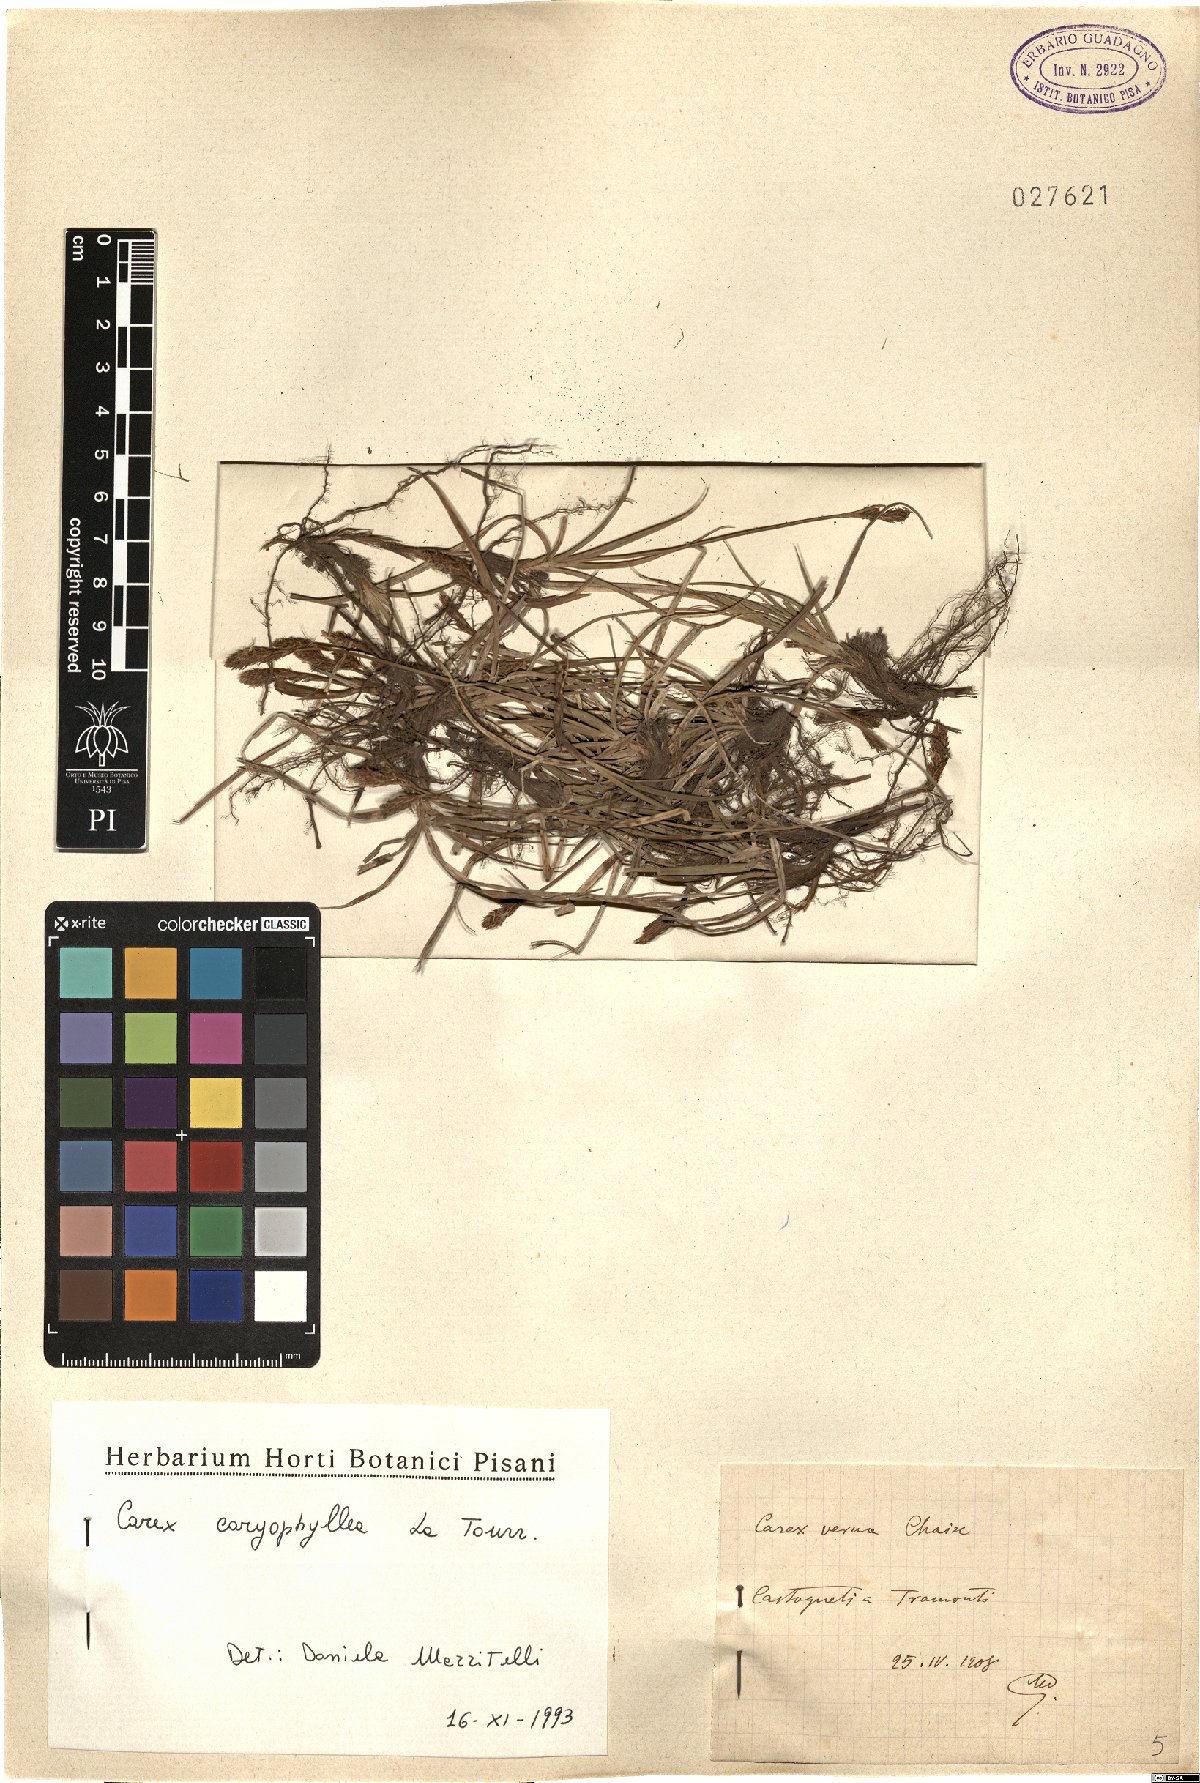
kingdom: Plantae
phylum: Tracheophyta
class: Liliopsida
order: Poales
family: Cyperaceae
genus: Carex
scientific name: Carex caryophyllea
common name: Spring sedge
